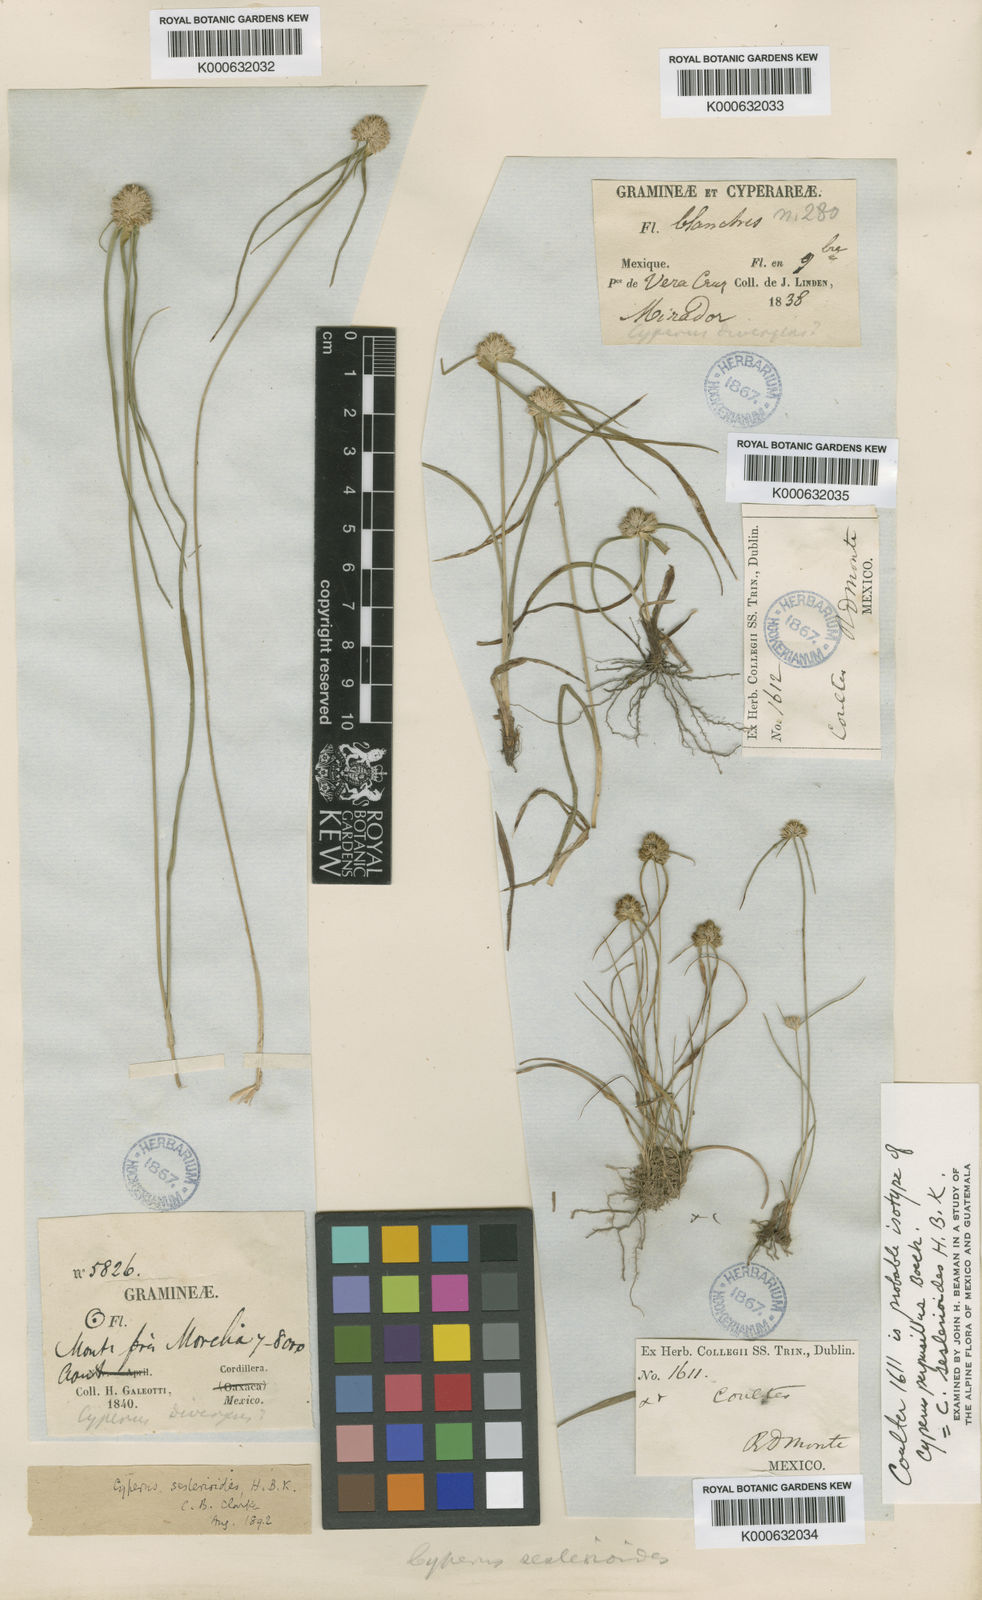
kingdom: Plantae
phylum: Tracheophyta
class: Liliopsida
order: Poales
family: Cyperaceae
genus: Cyperus
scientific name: Cyperus seslerioides
